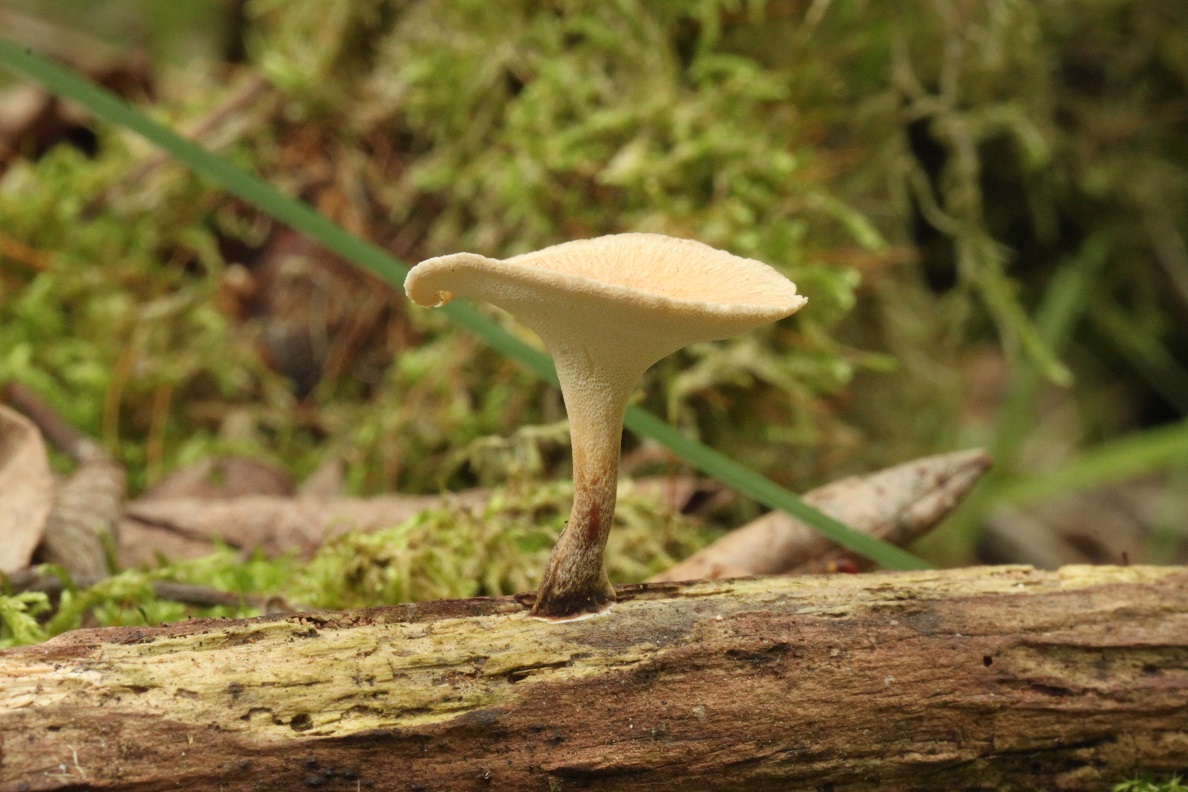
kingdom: Fungi
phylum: Basidiomycota
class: Agaricomycetes
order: Polyporales
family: Polyporaceae
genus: Cerioporus
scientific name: Cerioporus varius
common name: foranderlig stilkporesvamp
